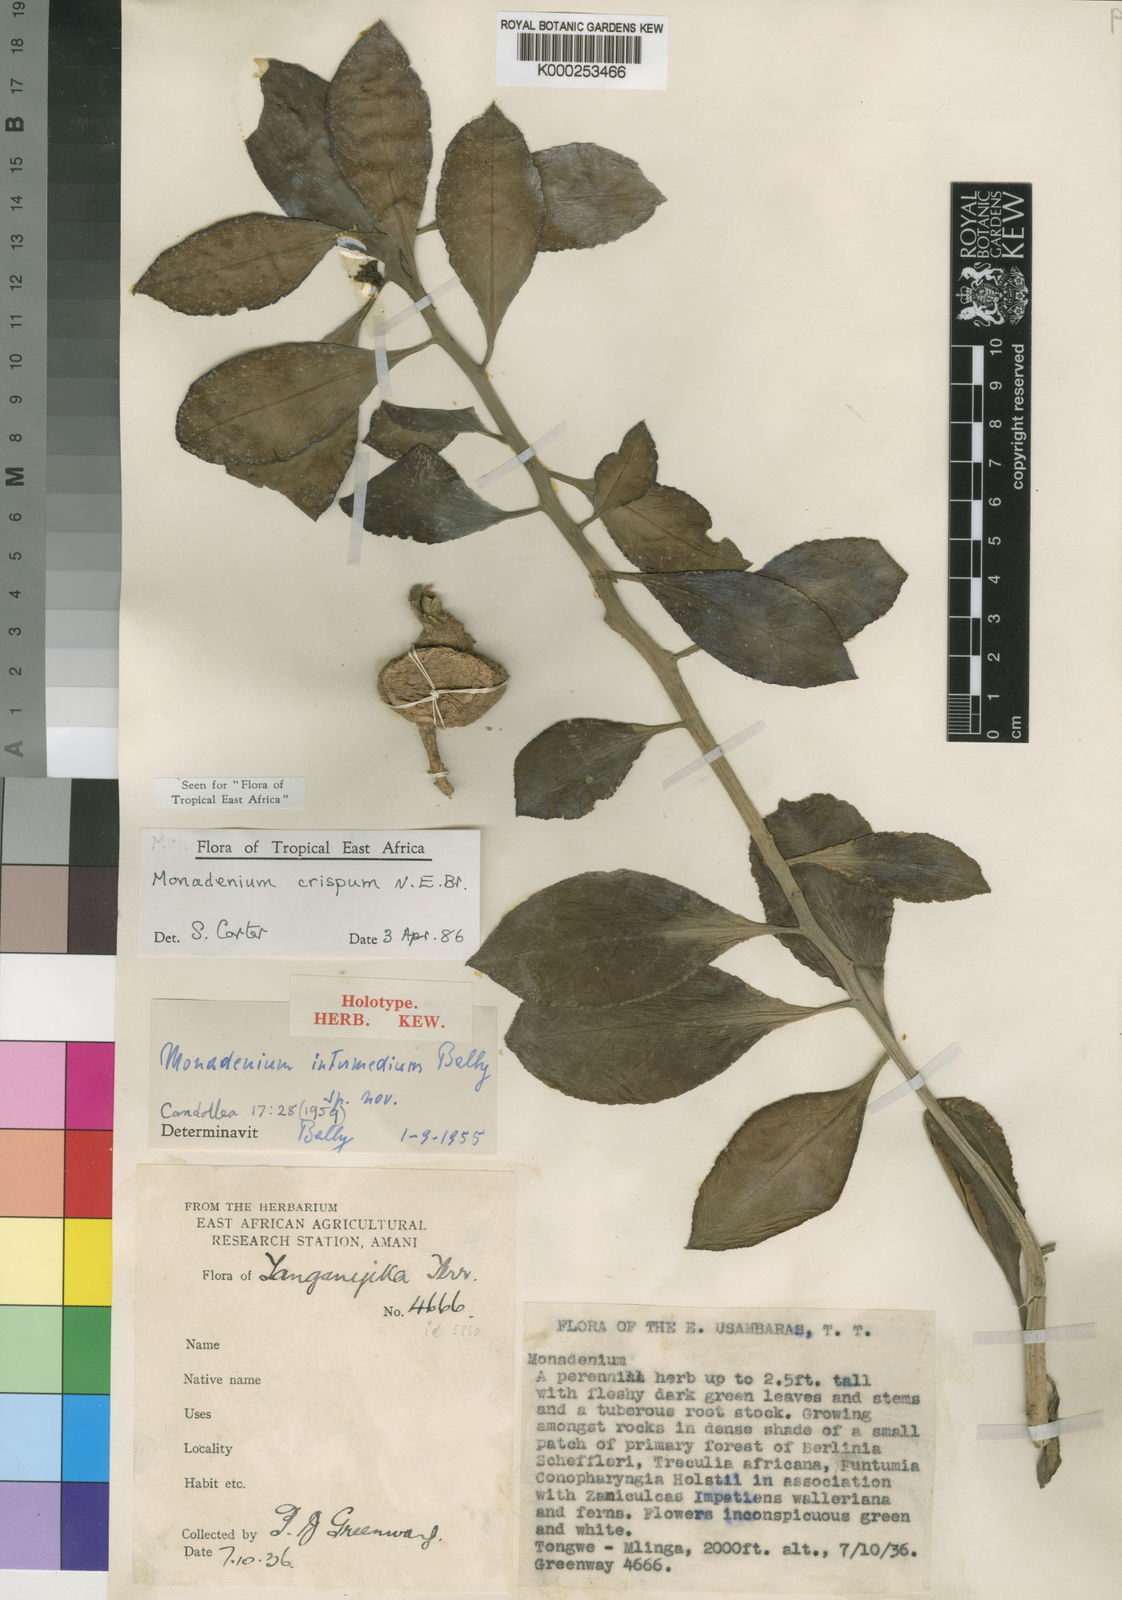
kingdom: Plantae
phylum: Tracheophyta
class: Magnoliopsida
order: Malpighiales
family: Euphorbiaceae
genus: Euphorbia
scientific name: Euphorbia neocrispa
